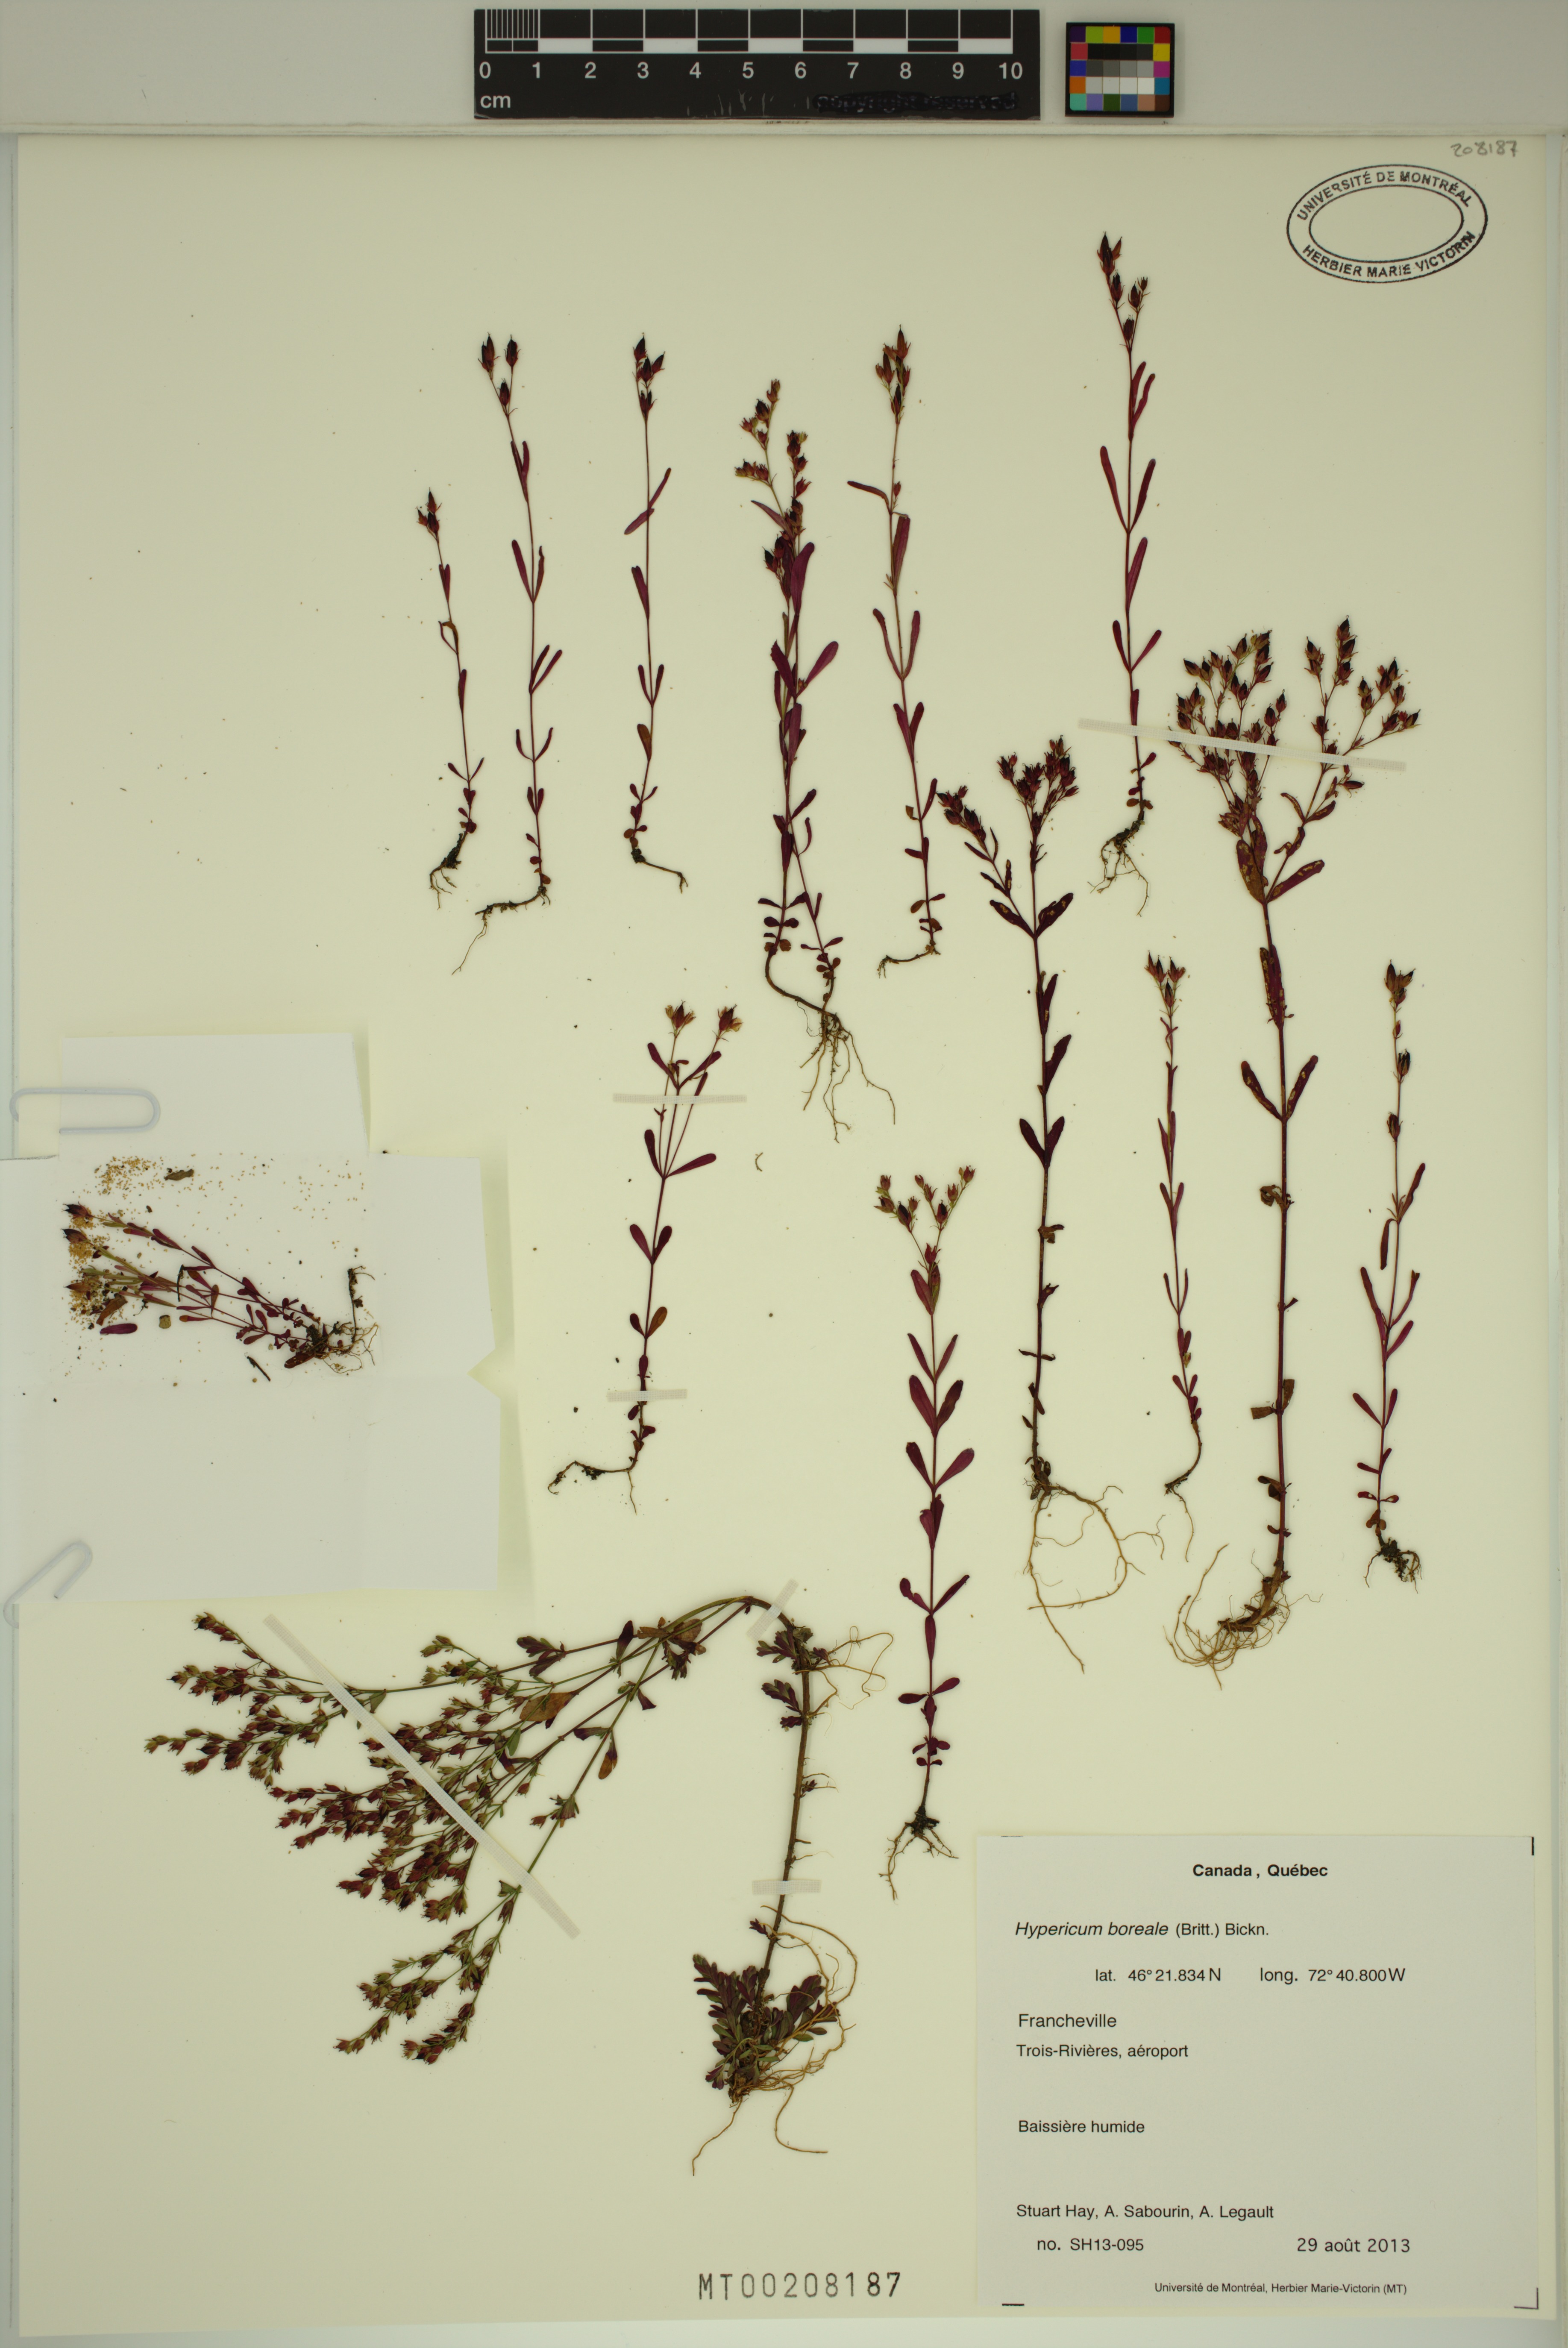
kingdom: Plantae
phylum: Tracheophyta
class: Magnoliopsida
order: Malpighiales
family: Hypericaceae
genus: Hypericum
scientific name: Hypericum boreale
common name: Northern bog st. john's-wort
